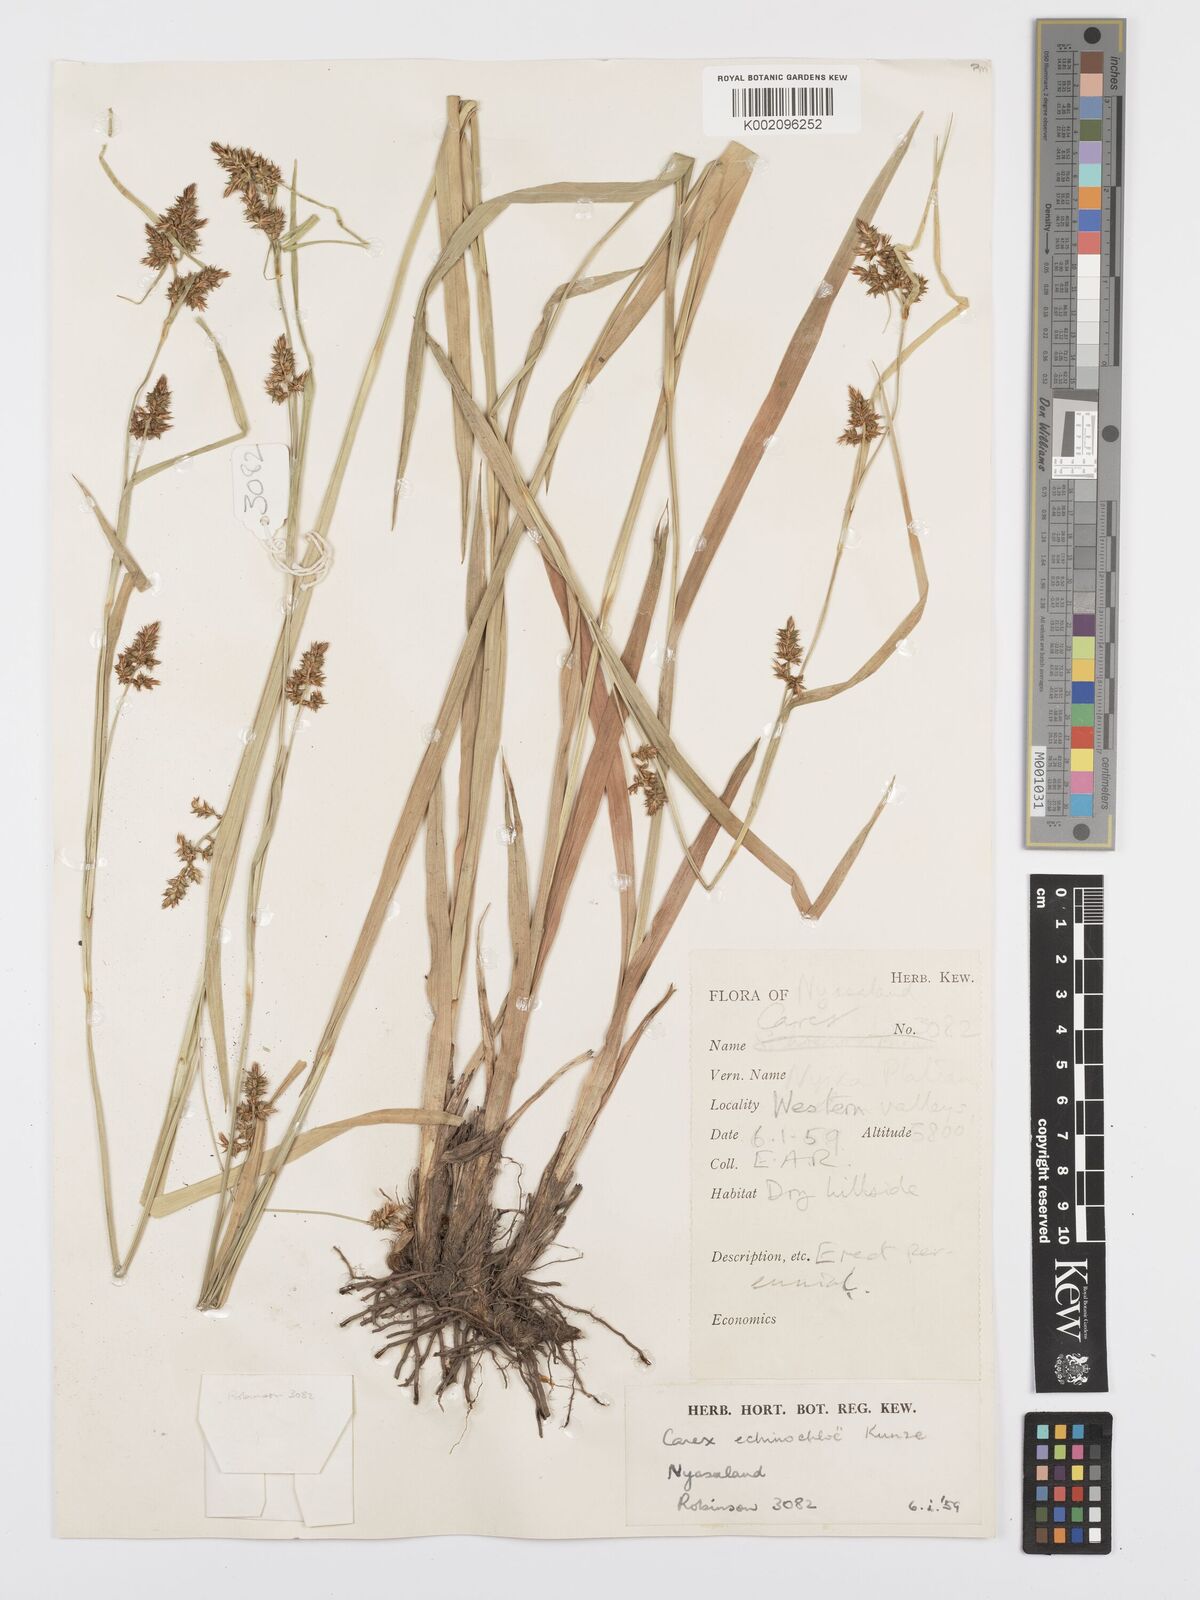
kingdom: Plantae
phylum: Tracheophyta
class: Liliopsida
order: Poales
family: Cyperaceae
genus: Carex
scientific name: Carex echinochloe
